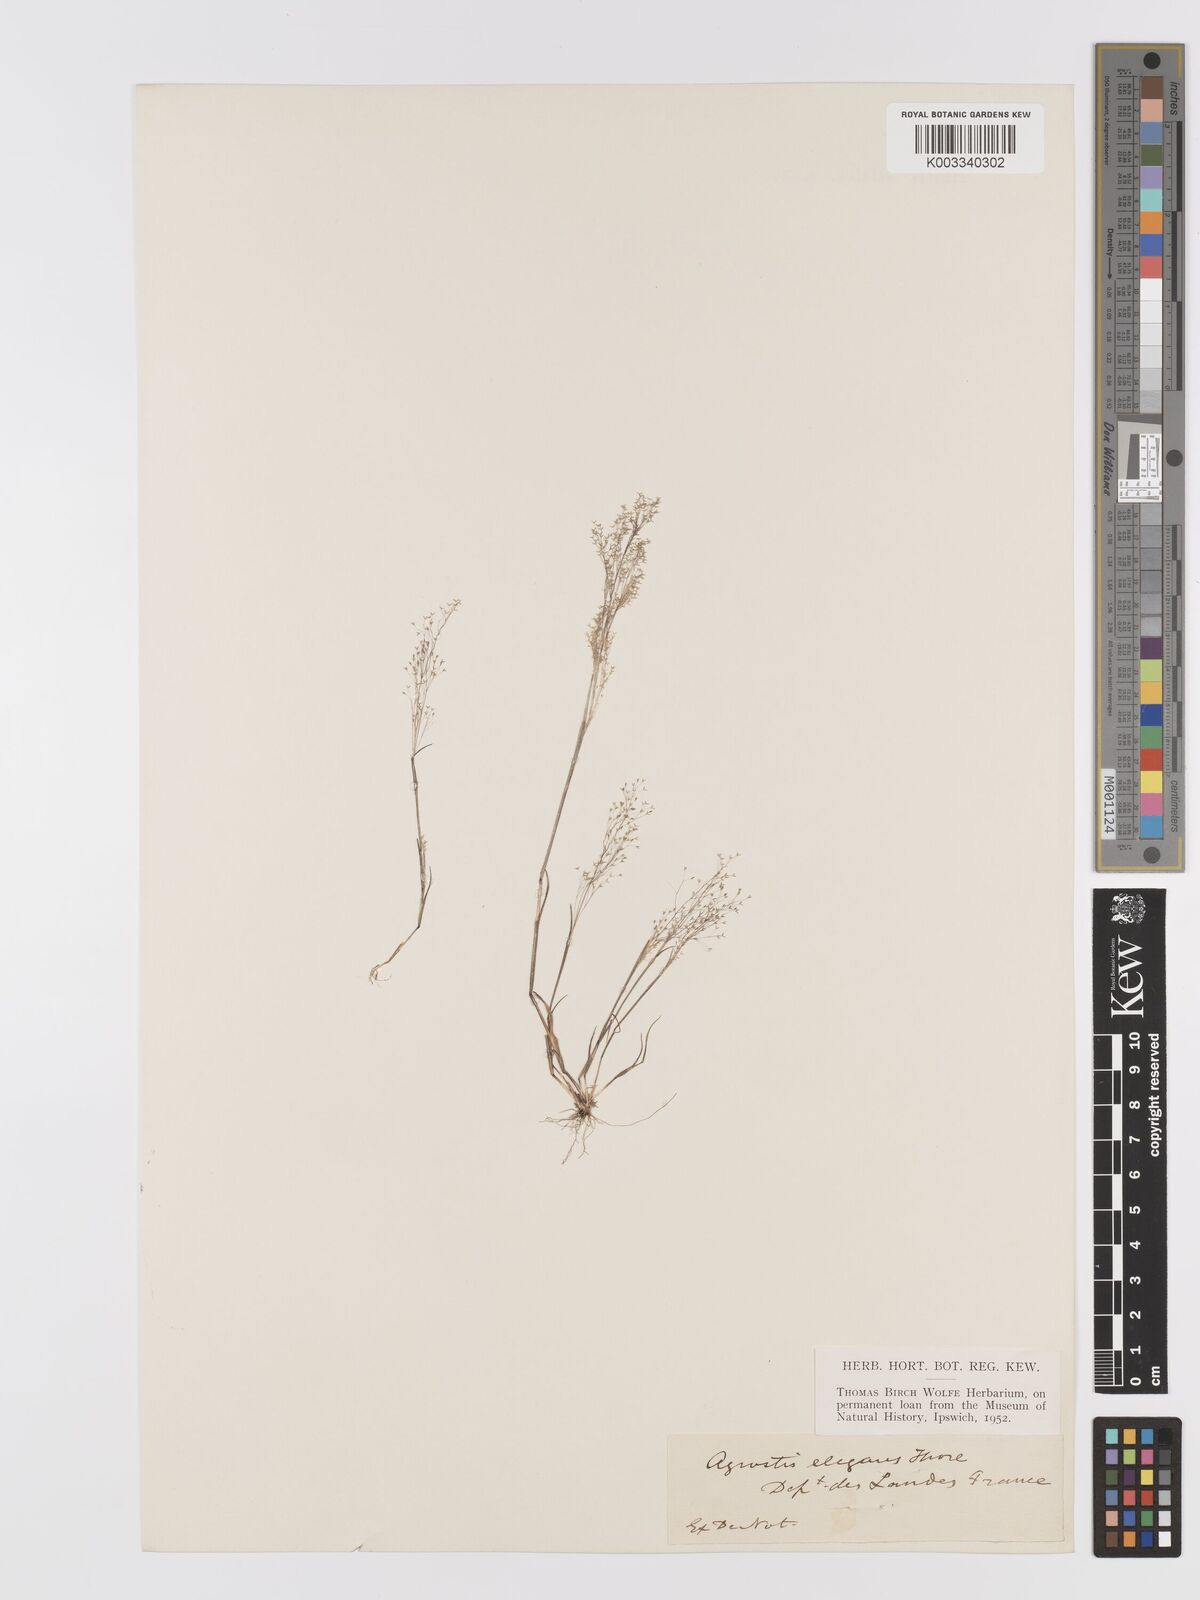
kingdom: Plantae
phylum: Tracheophyta
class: Liliopsida
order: Poales
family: Poaceae
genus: Agrostis
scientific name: Agrostis tenerrima
